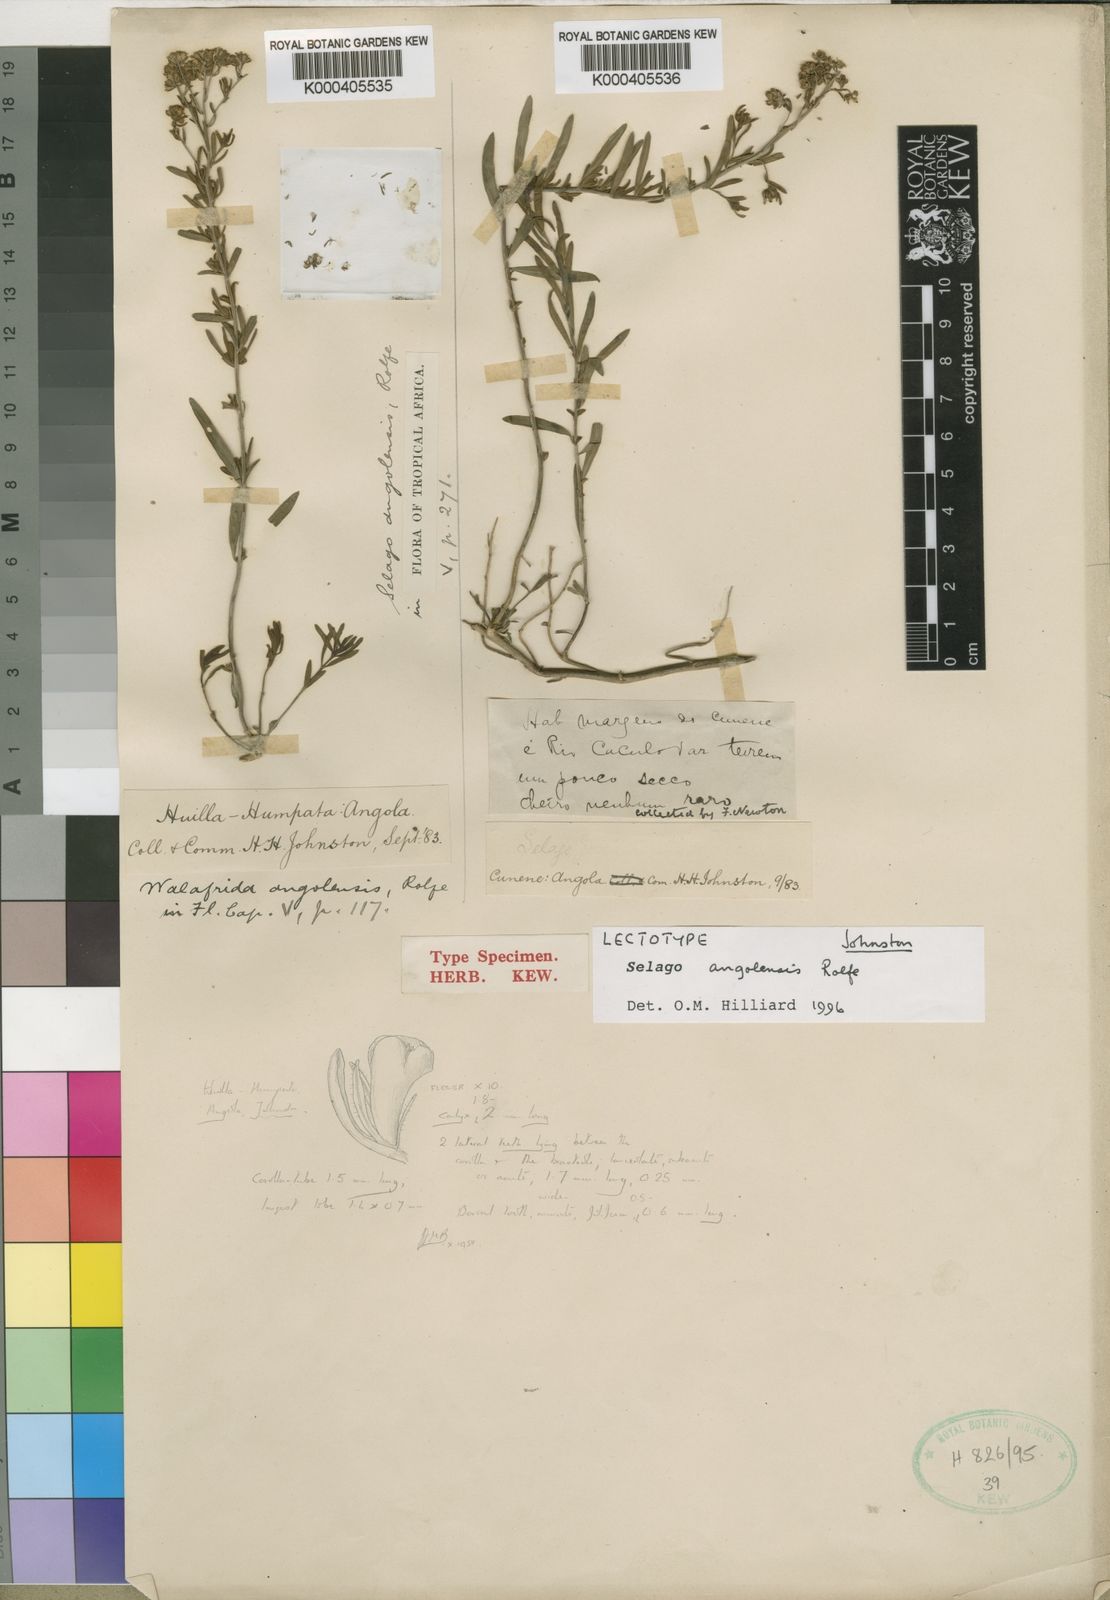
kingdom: Plantae
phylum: Tracheophyta
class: Magnoliopsida
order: Lamiales
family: Scrophulariaceae
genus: Selago
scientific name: Selago angolensis
